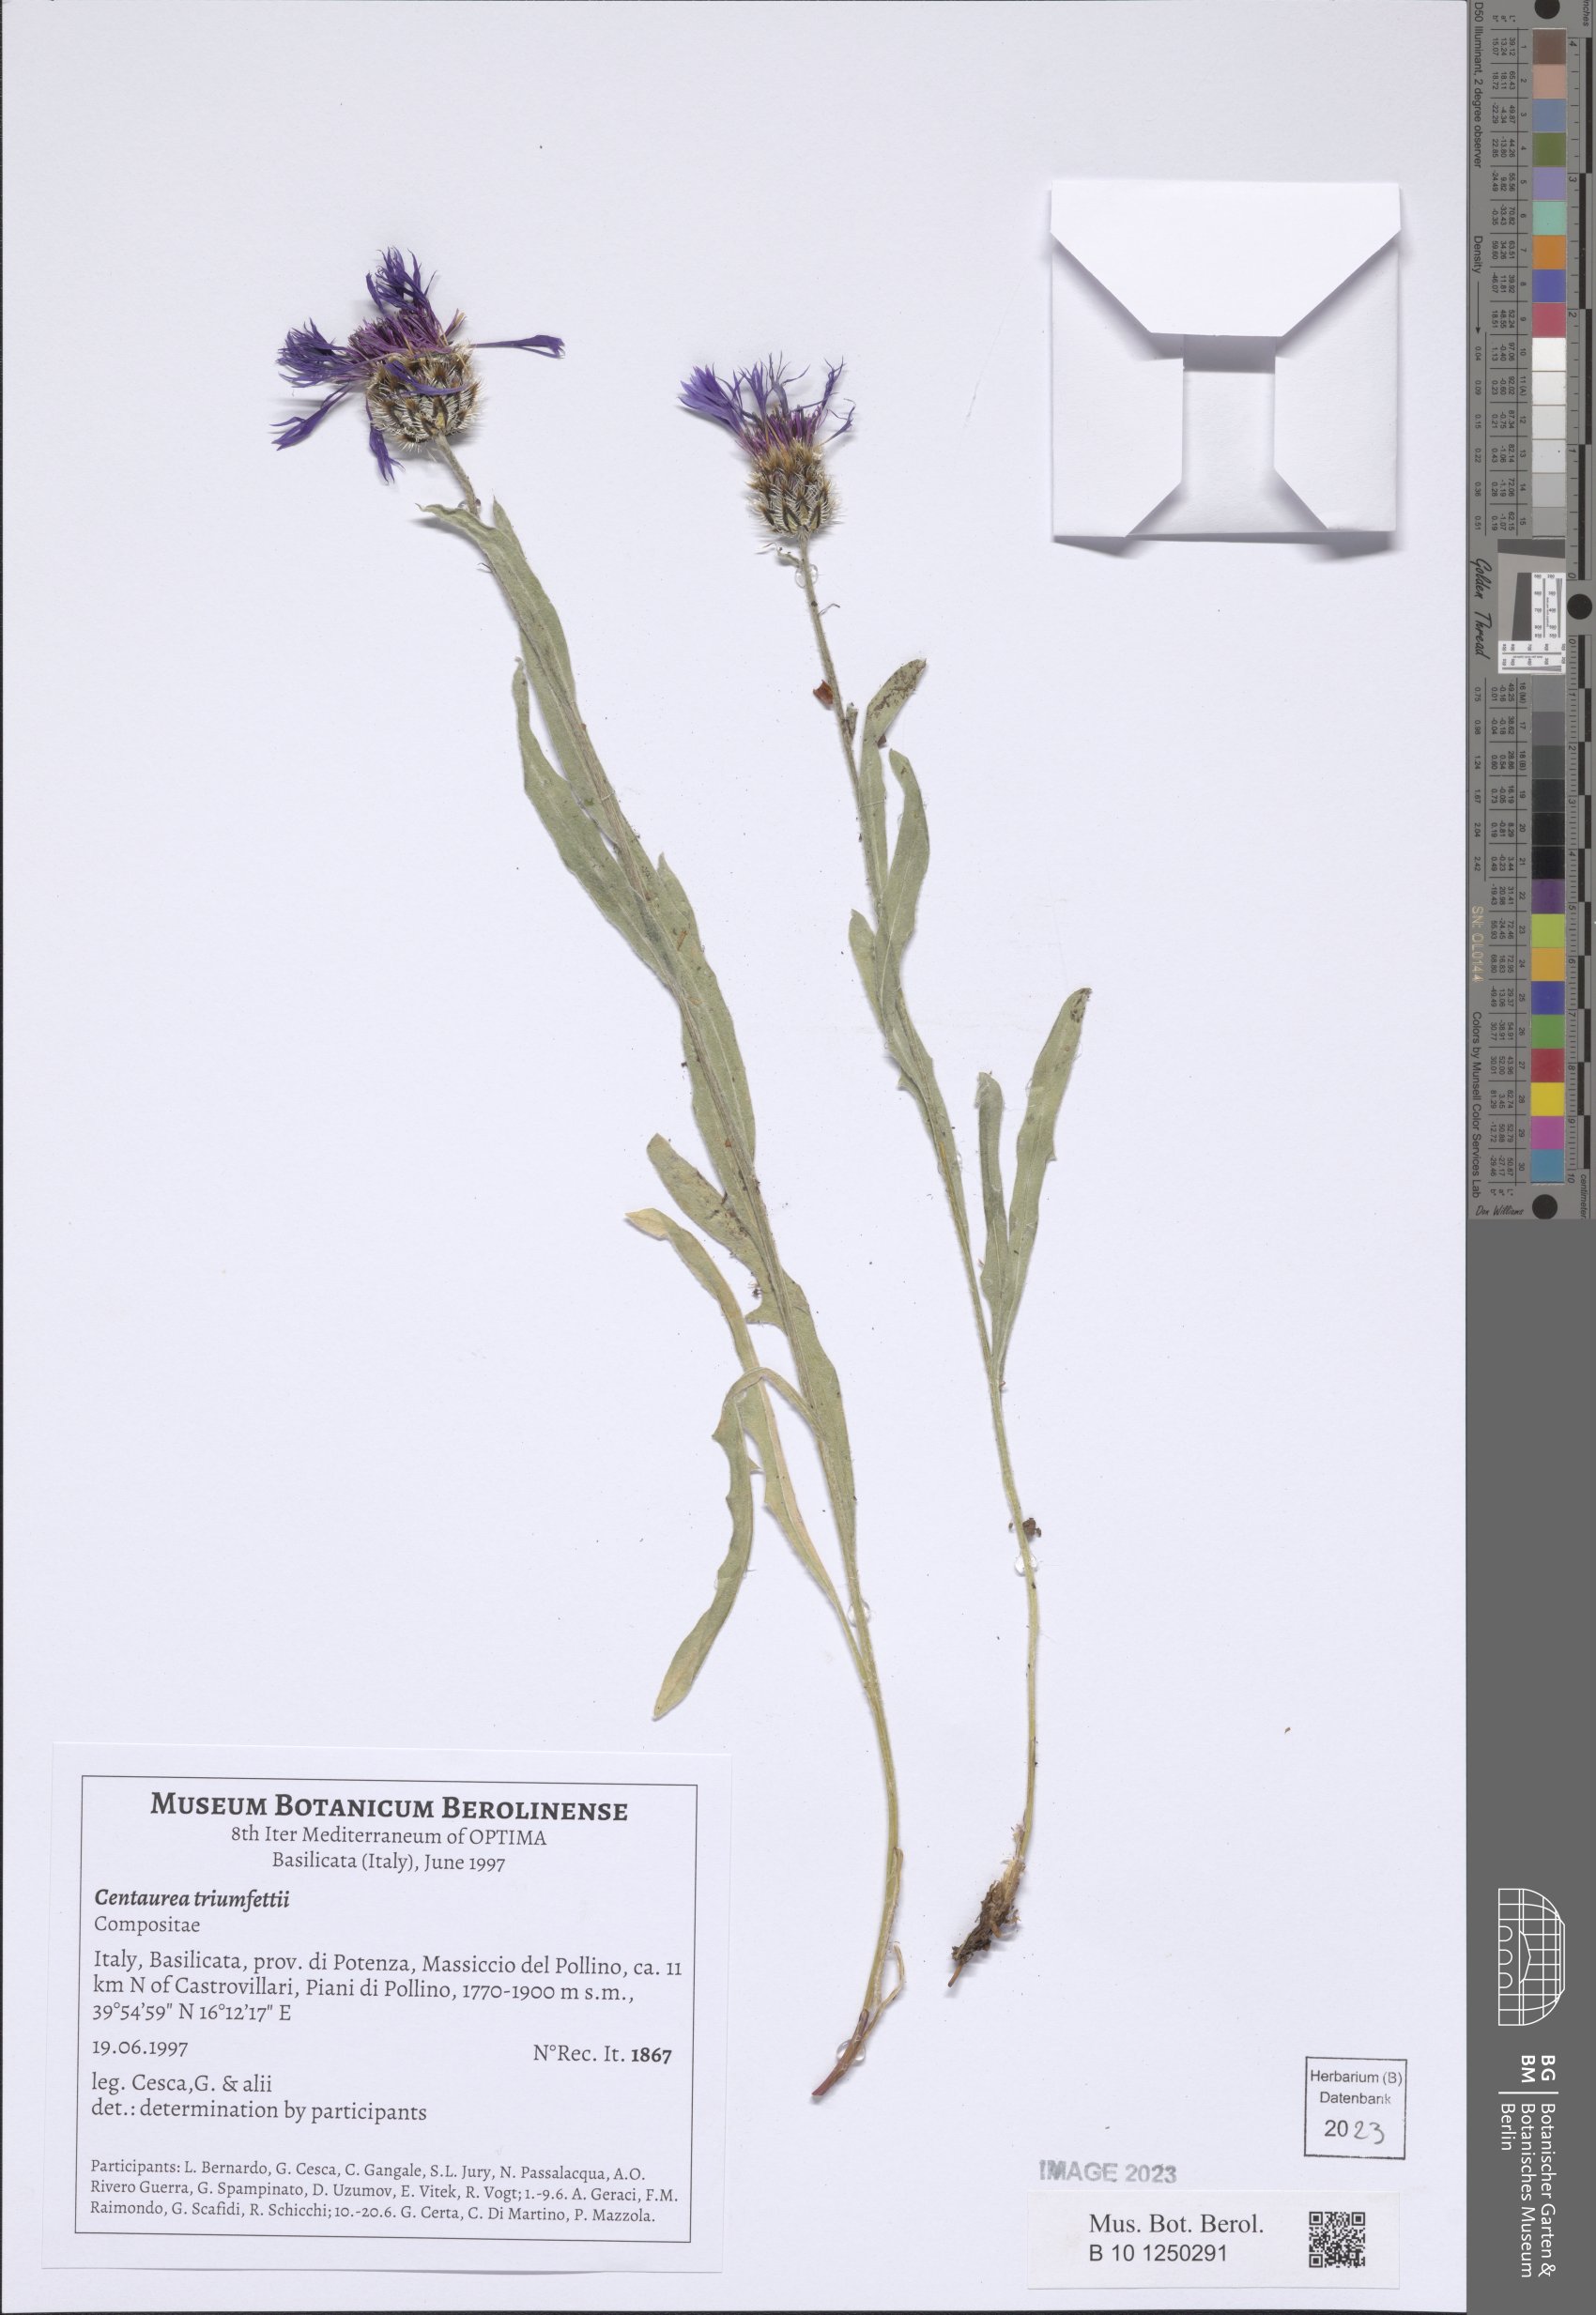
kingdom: Plantae
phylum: Tracheophyta
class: Magnoliopsida
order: Asterales
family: Asteraceae
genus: Centaurea
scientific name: Centaurea triumfettii
